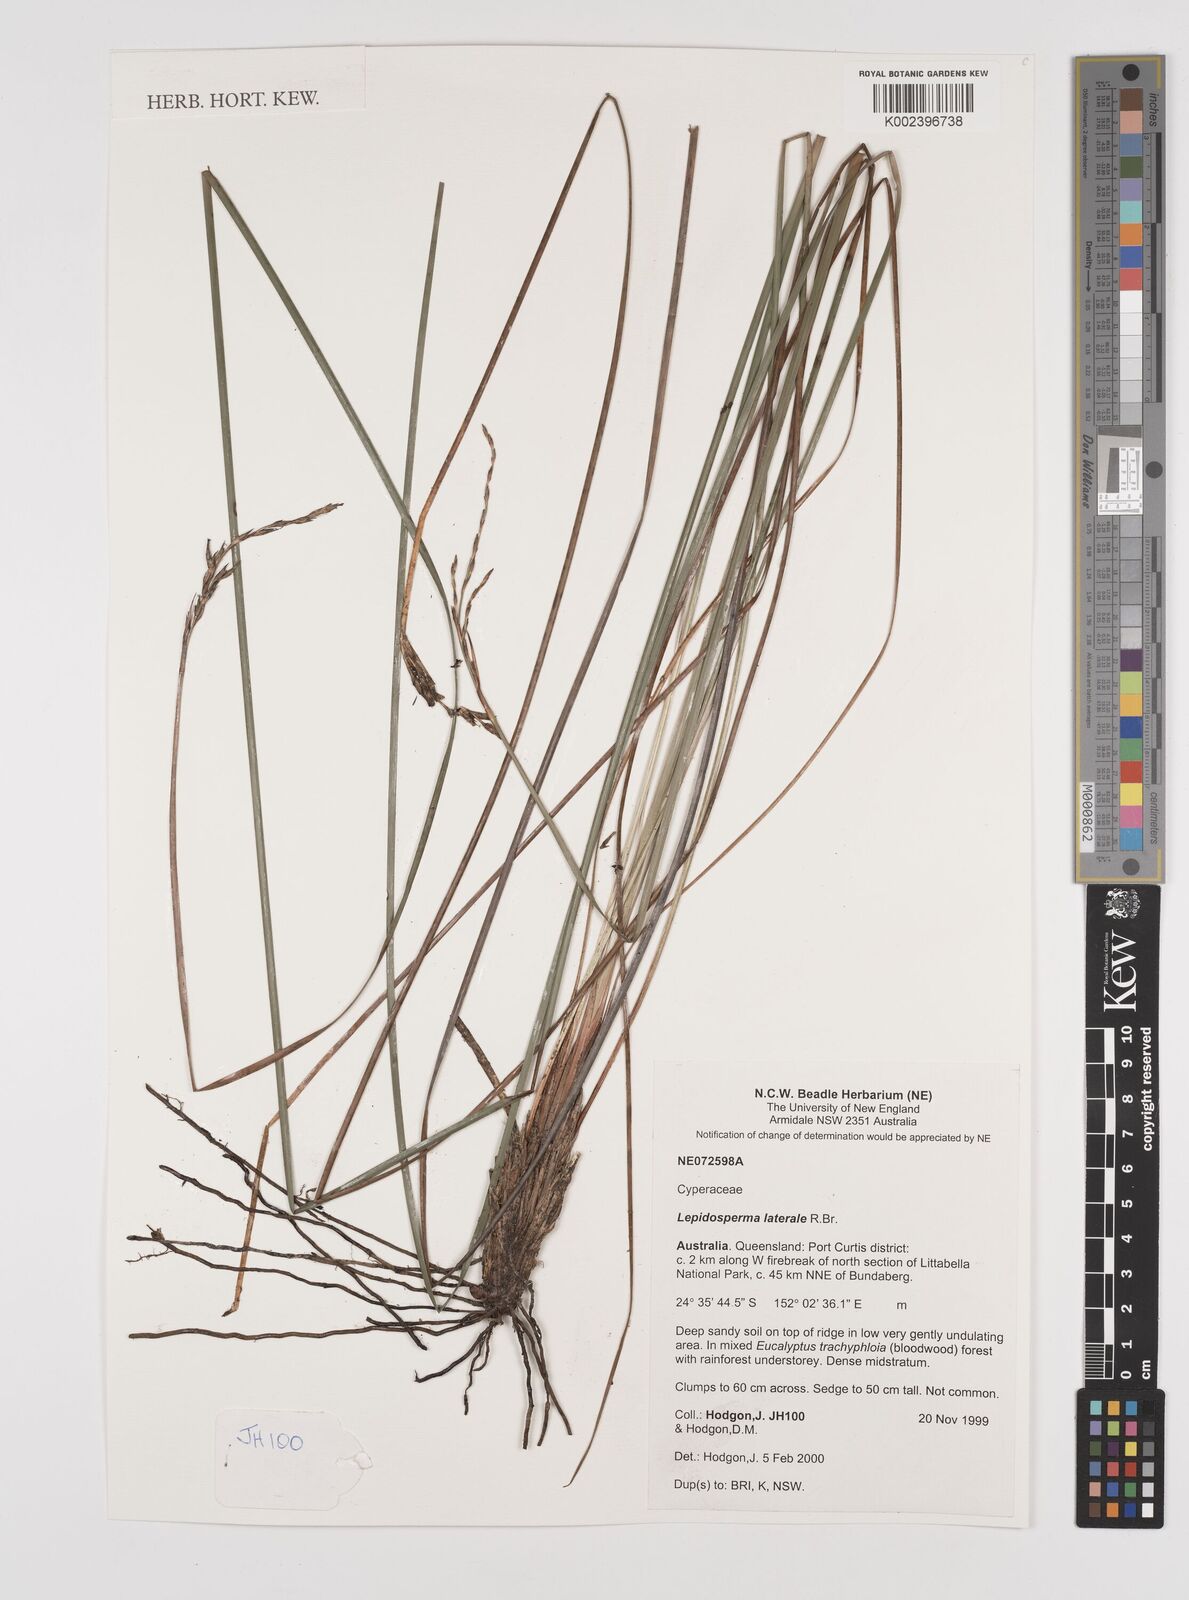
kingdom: Plantae
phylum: Tracheophyta
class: Liliopsida
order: Poales
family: Cyperaceae
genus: Lepidosperma
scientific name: Lepidosperma laterale
